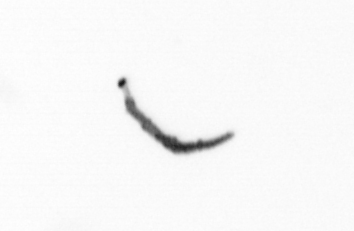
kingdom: Chromista
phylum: Ochrophyta
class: Bacillariophyceae
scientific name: Bacillariophyceae
